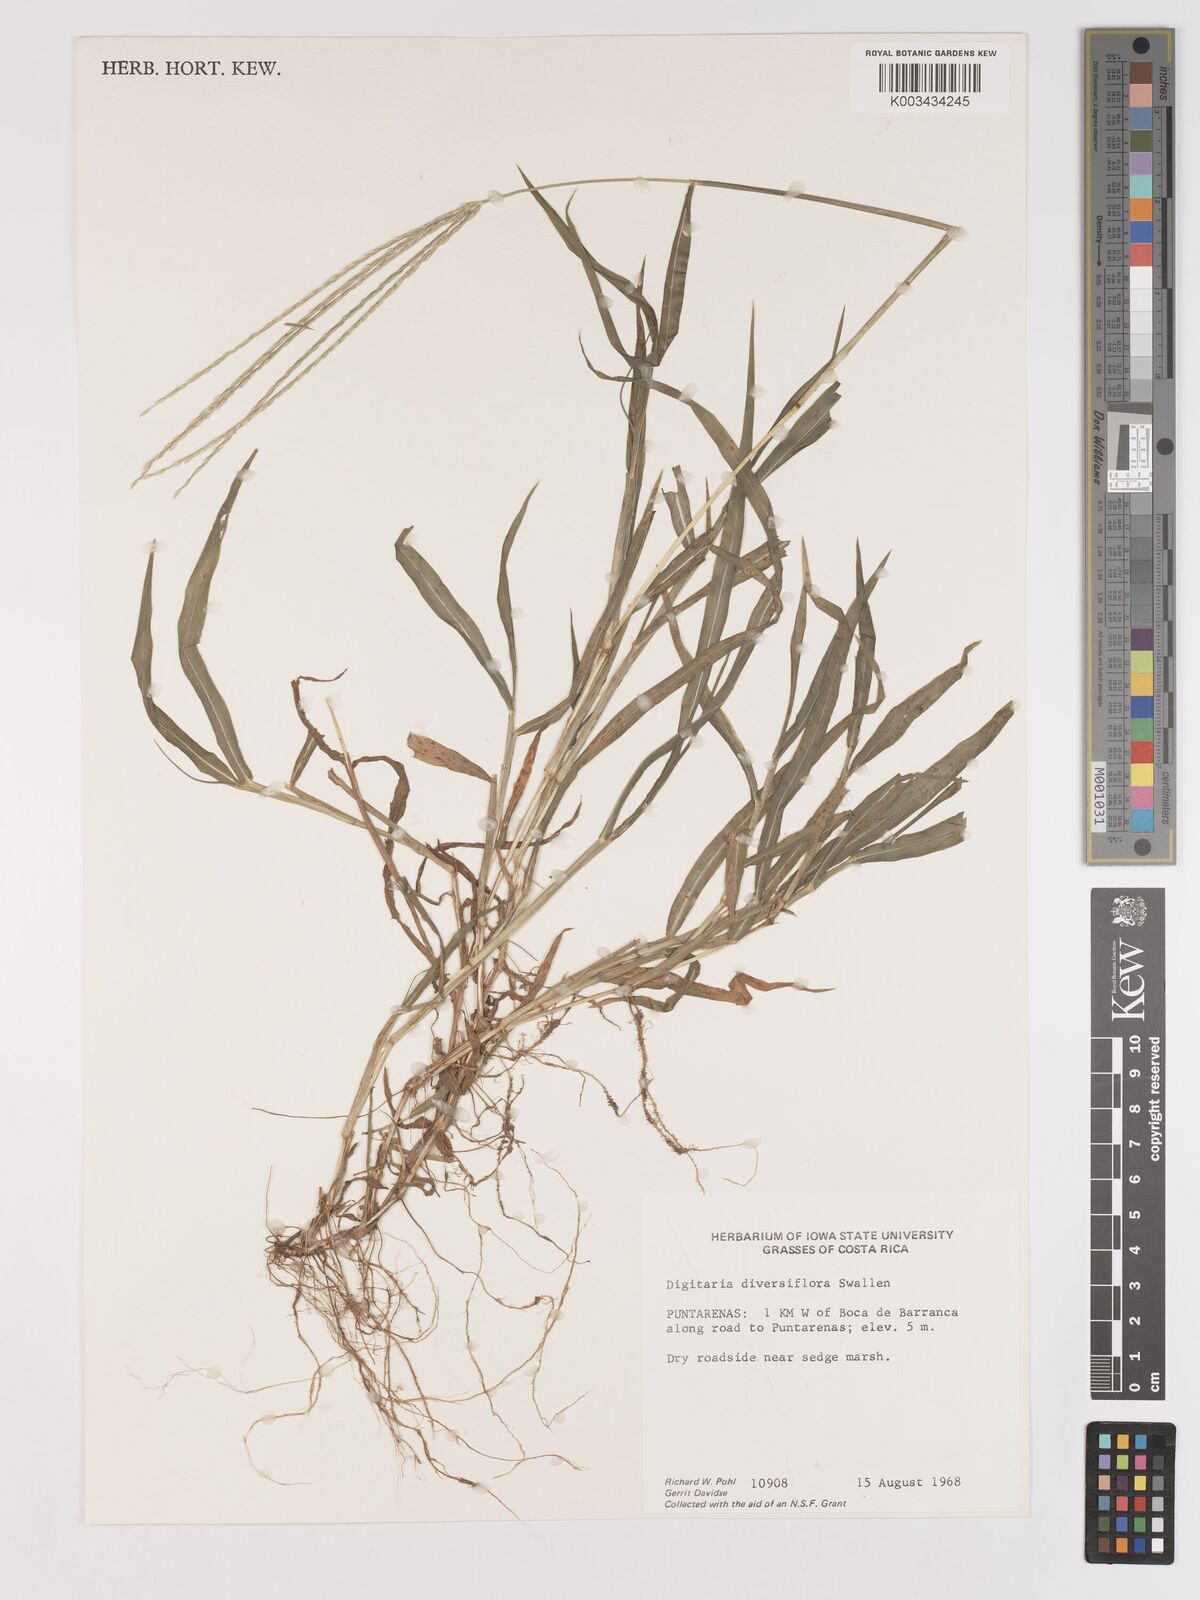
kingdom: Plantae
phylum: Tracheophyta
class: Liliopsida
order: Poales
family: Poaceae
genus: Digitaria
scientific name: Digitaria bicornis
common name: Asian crabgrass
